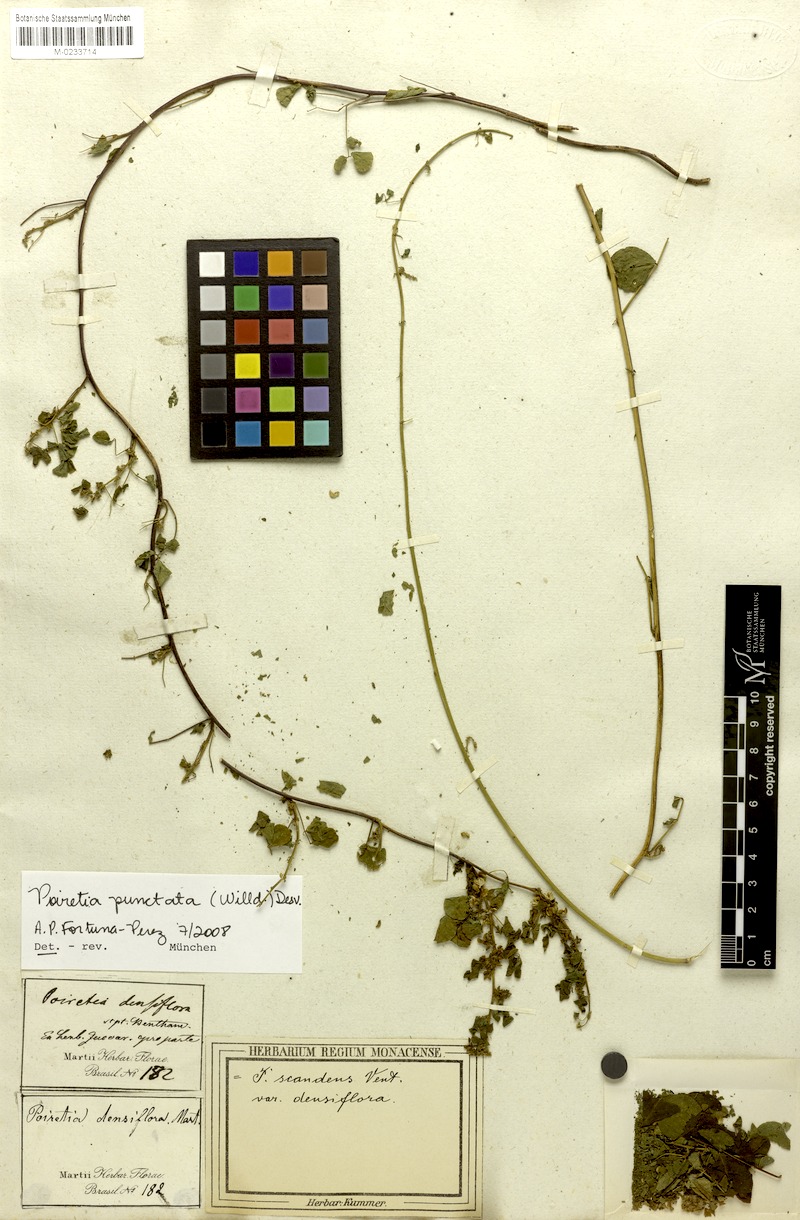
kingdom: Plantae
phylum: Tracheophyta
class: Magnoliopsida
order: Fabales
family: Fabaceae
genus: Poiretia
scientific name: Poiretia punctata
